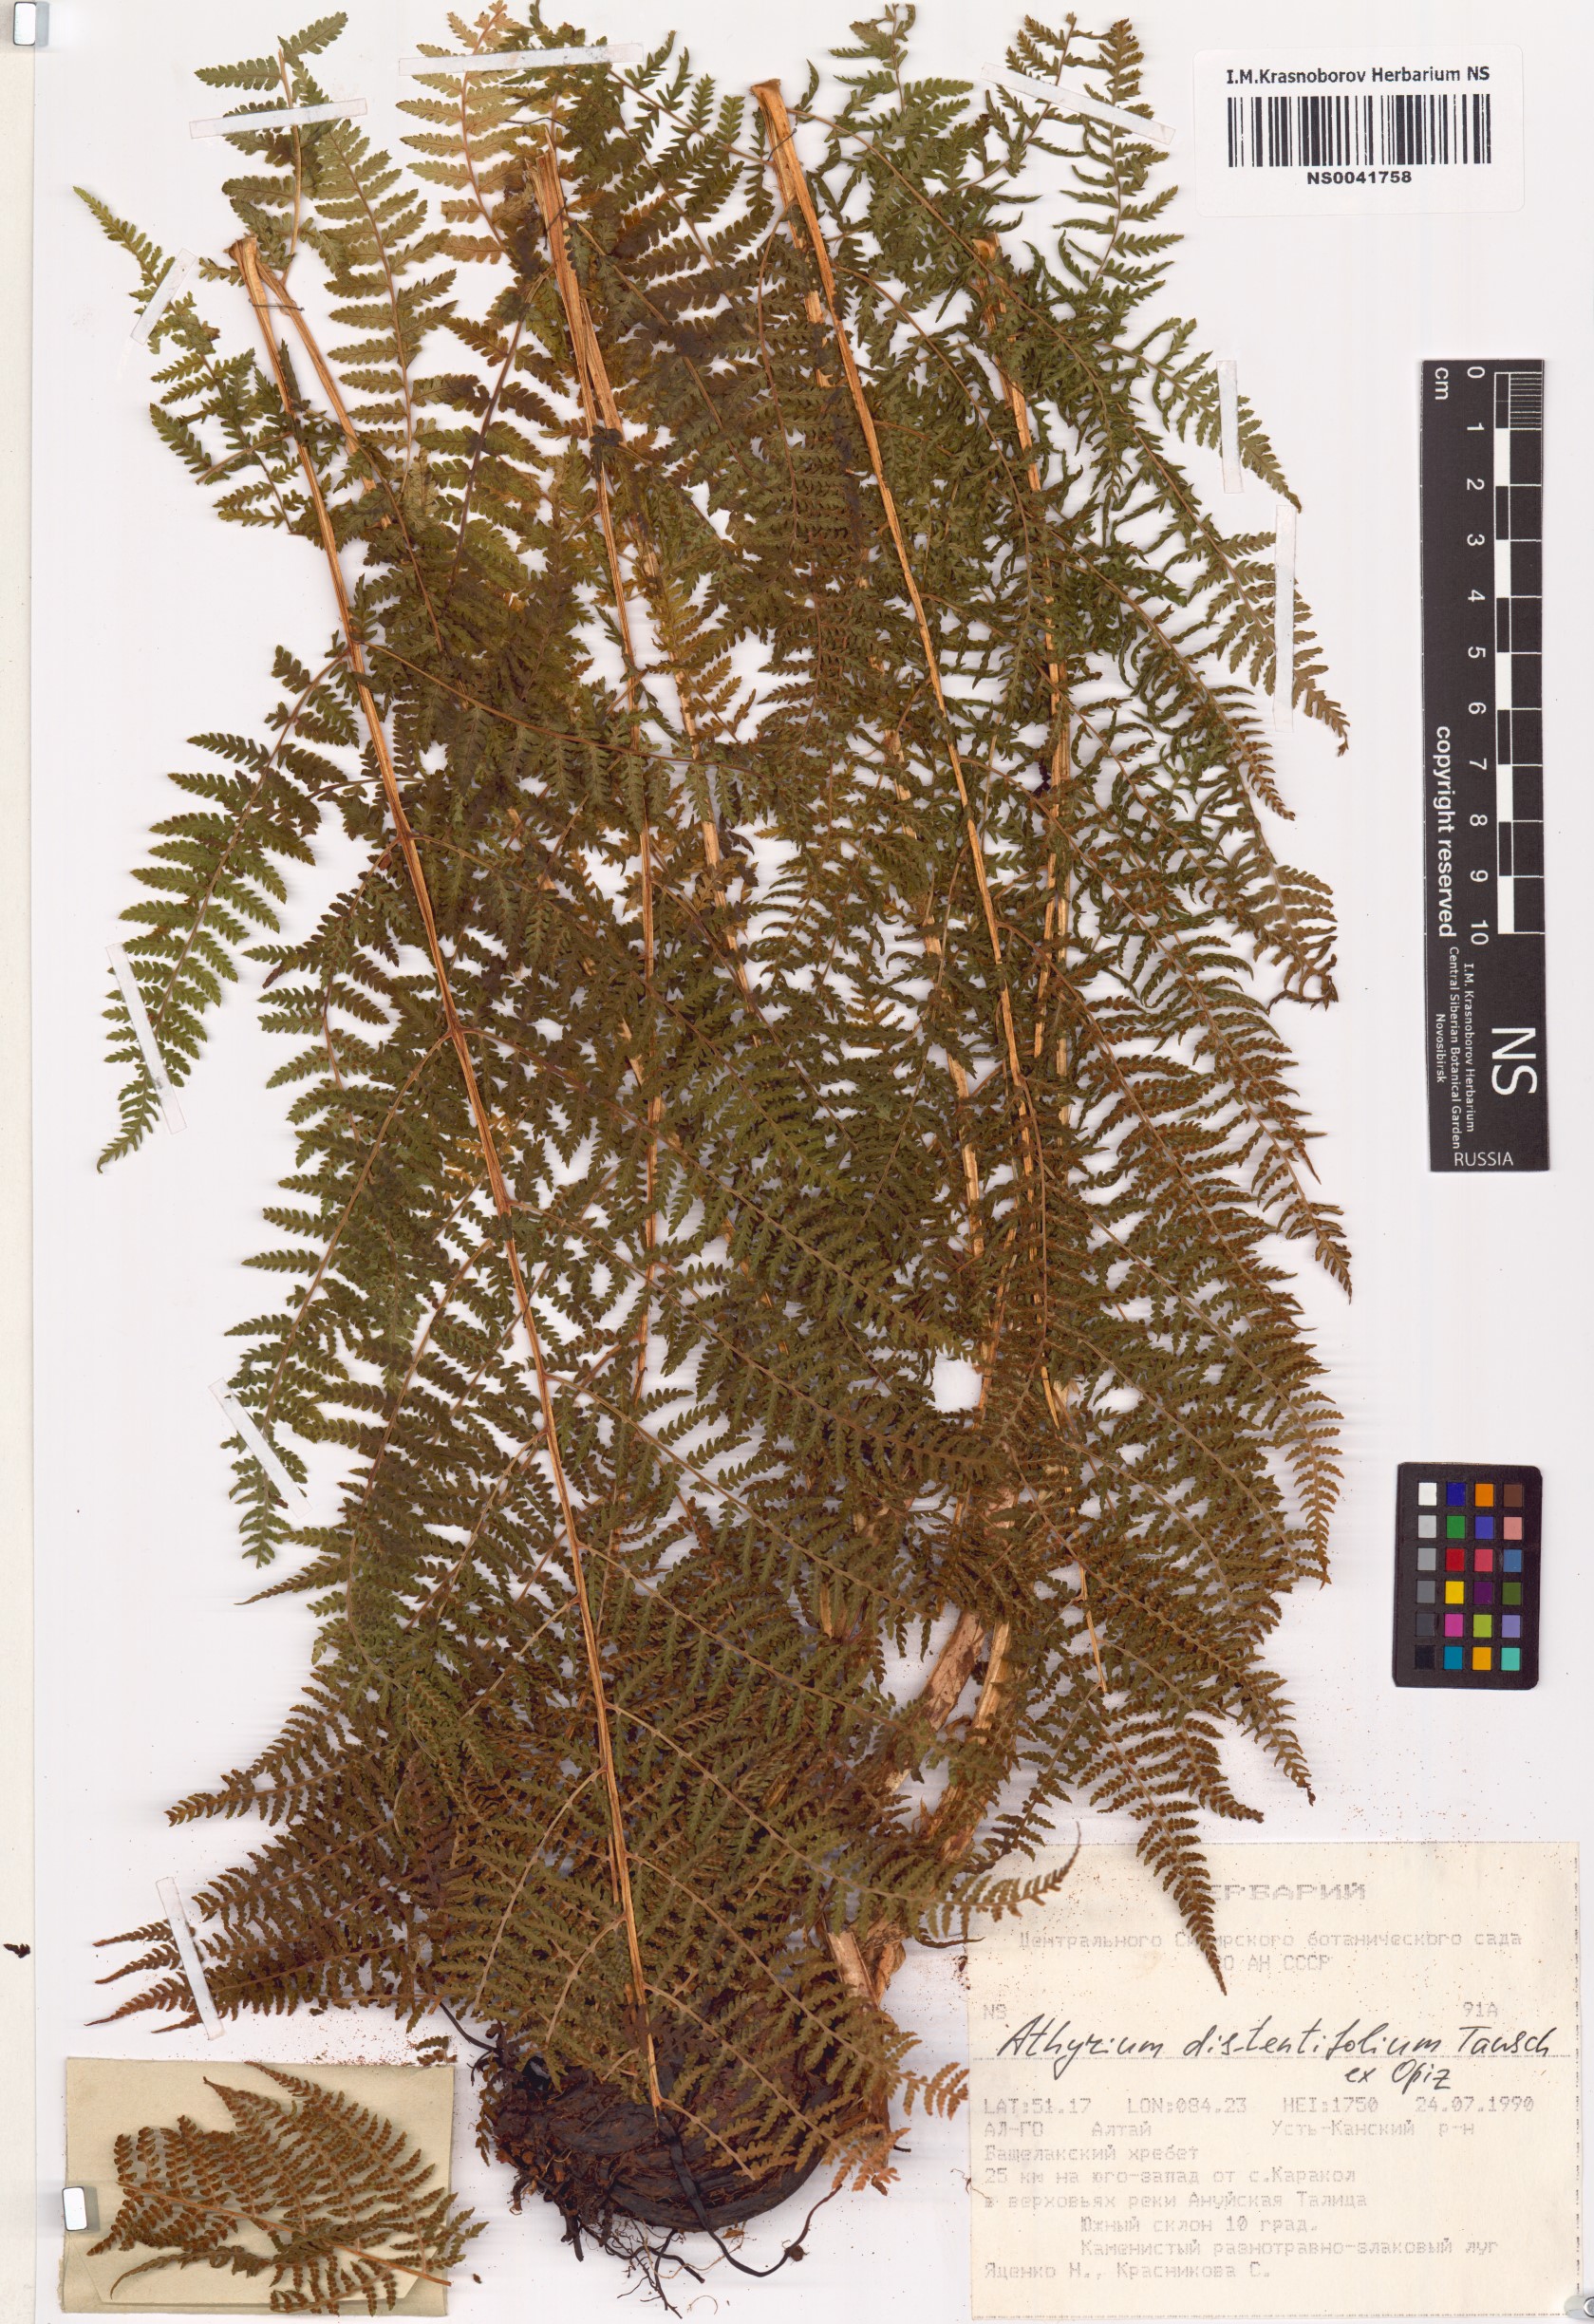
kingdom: Plantae
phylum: Tracheophyta
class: Polypodiopsida
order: Polypodiales
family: Athyriaceae
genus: Pseudathyrium
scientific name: Pseudathyrium alpestre
